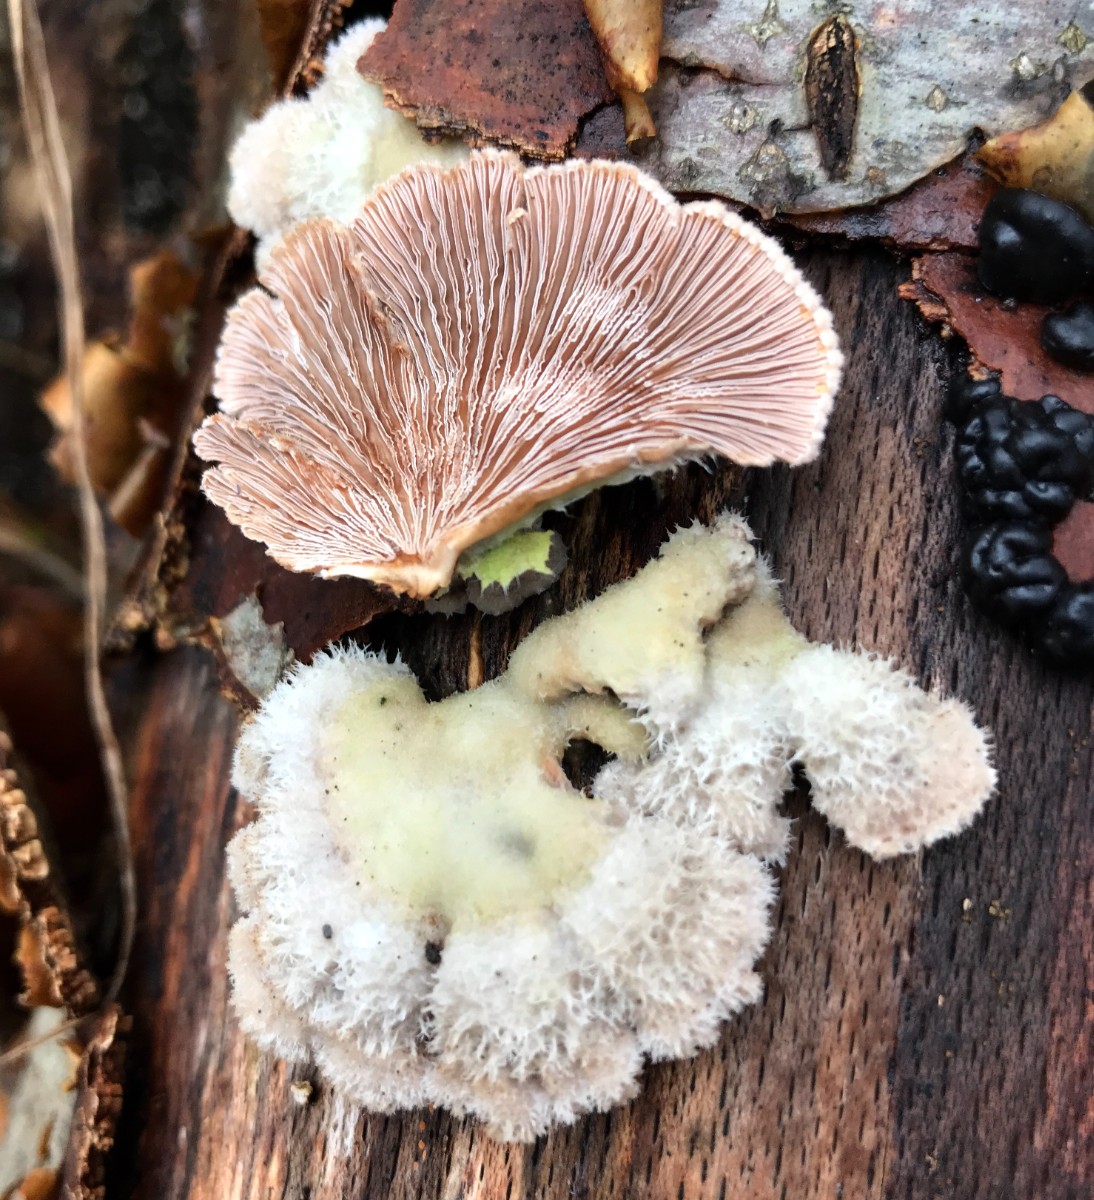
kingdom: Fungi
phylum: Basidiomycota
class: Agaricomycetes
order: Agaricales
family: Schizophyllaceae
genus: Schizophyllum
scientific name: Schizophyllum commune
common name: kløvblad
